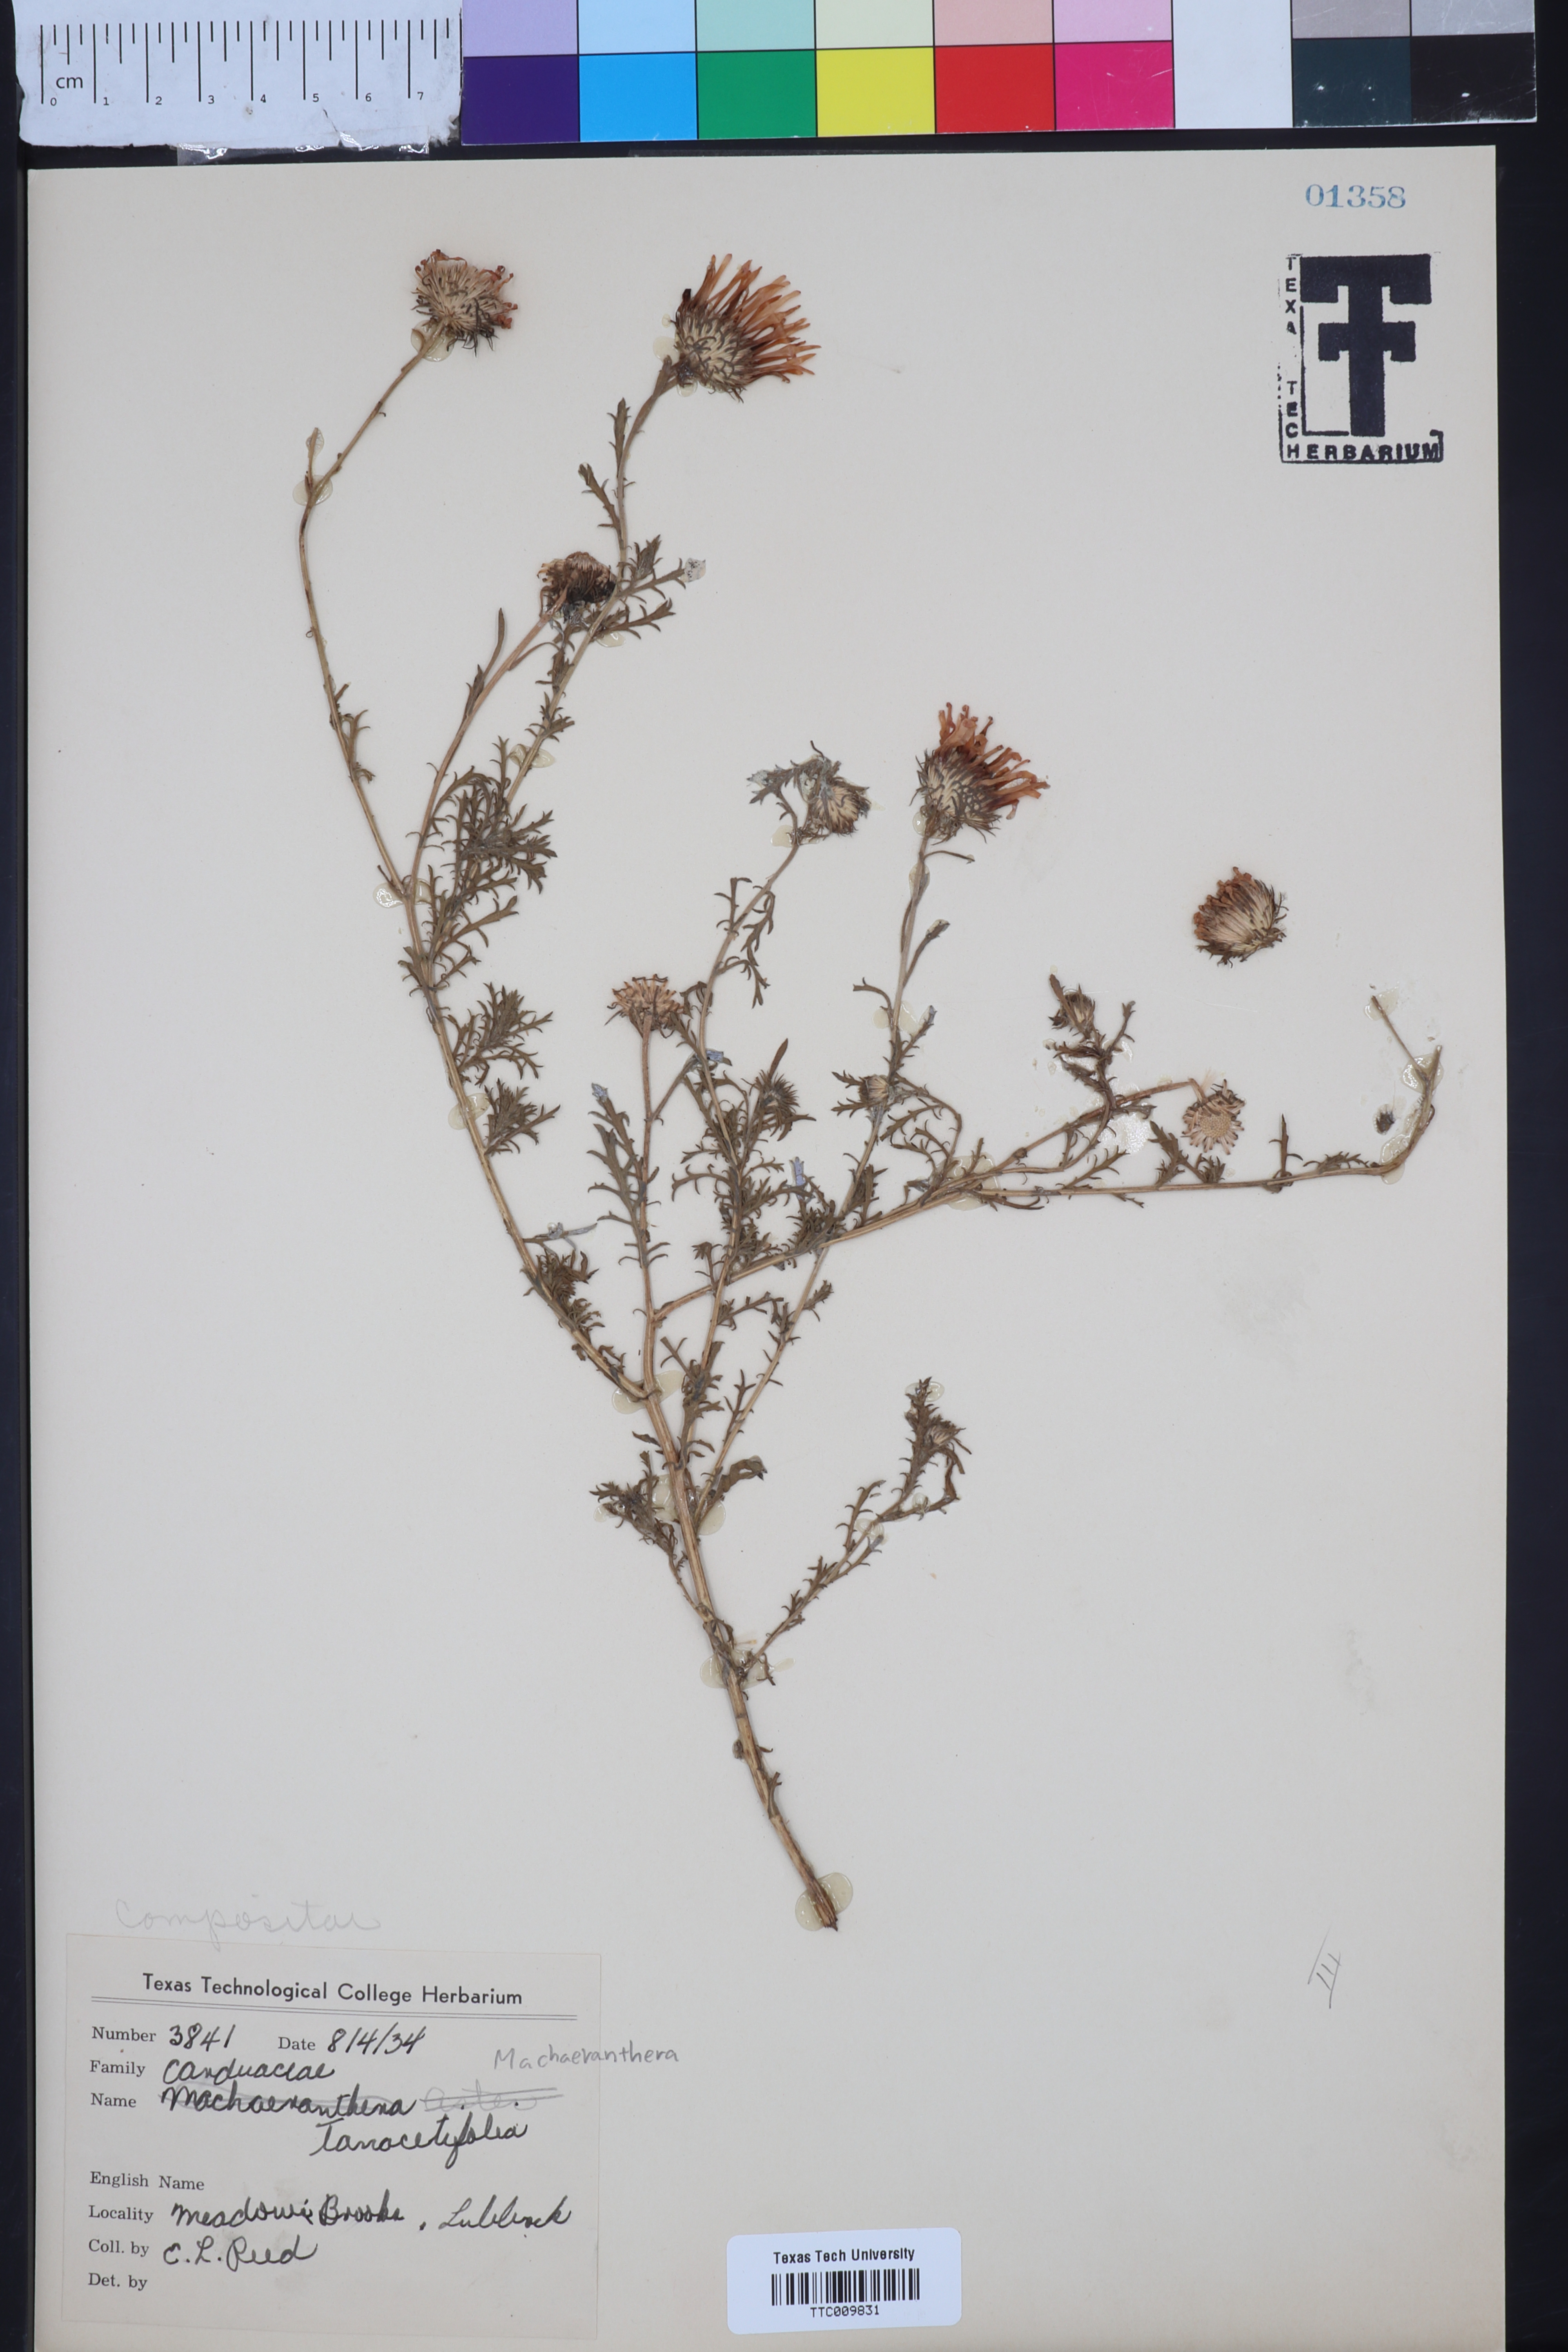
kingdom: Plantae
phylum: Tracheophyta
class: Magnoliopsida
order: Asterales
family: Asteraceae
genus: Machaeranthera
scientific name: Machaeranthera tanacetifolia
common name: Tansy-aster
